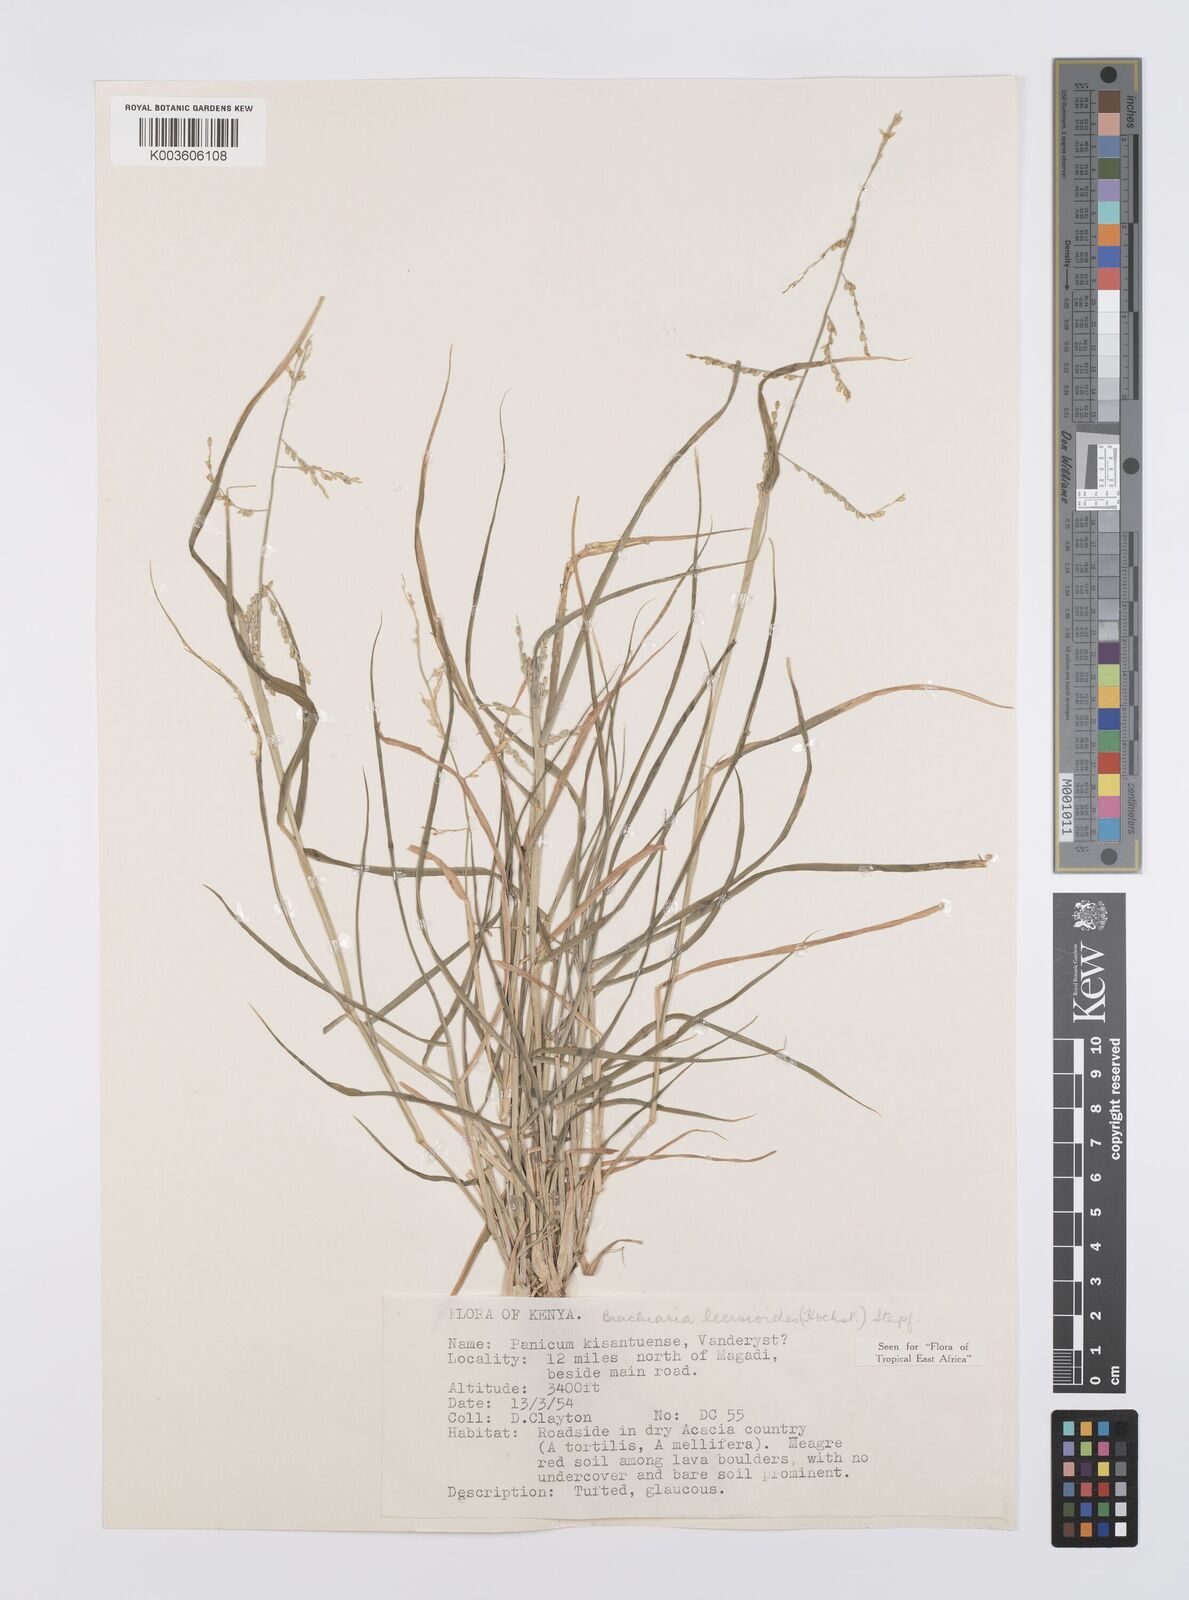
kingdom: Plantae
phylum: Tracheophyta
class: Liliopsida
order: Poales
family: Poaceae
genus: Urochloa
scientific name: Urochloa leersioides
